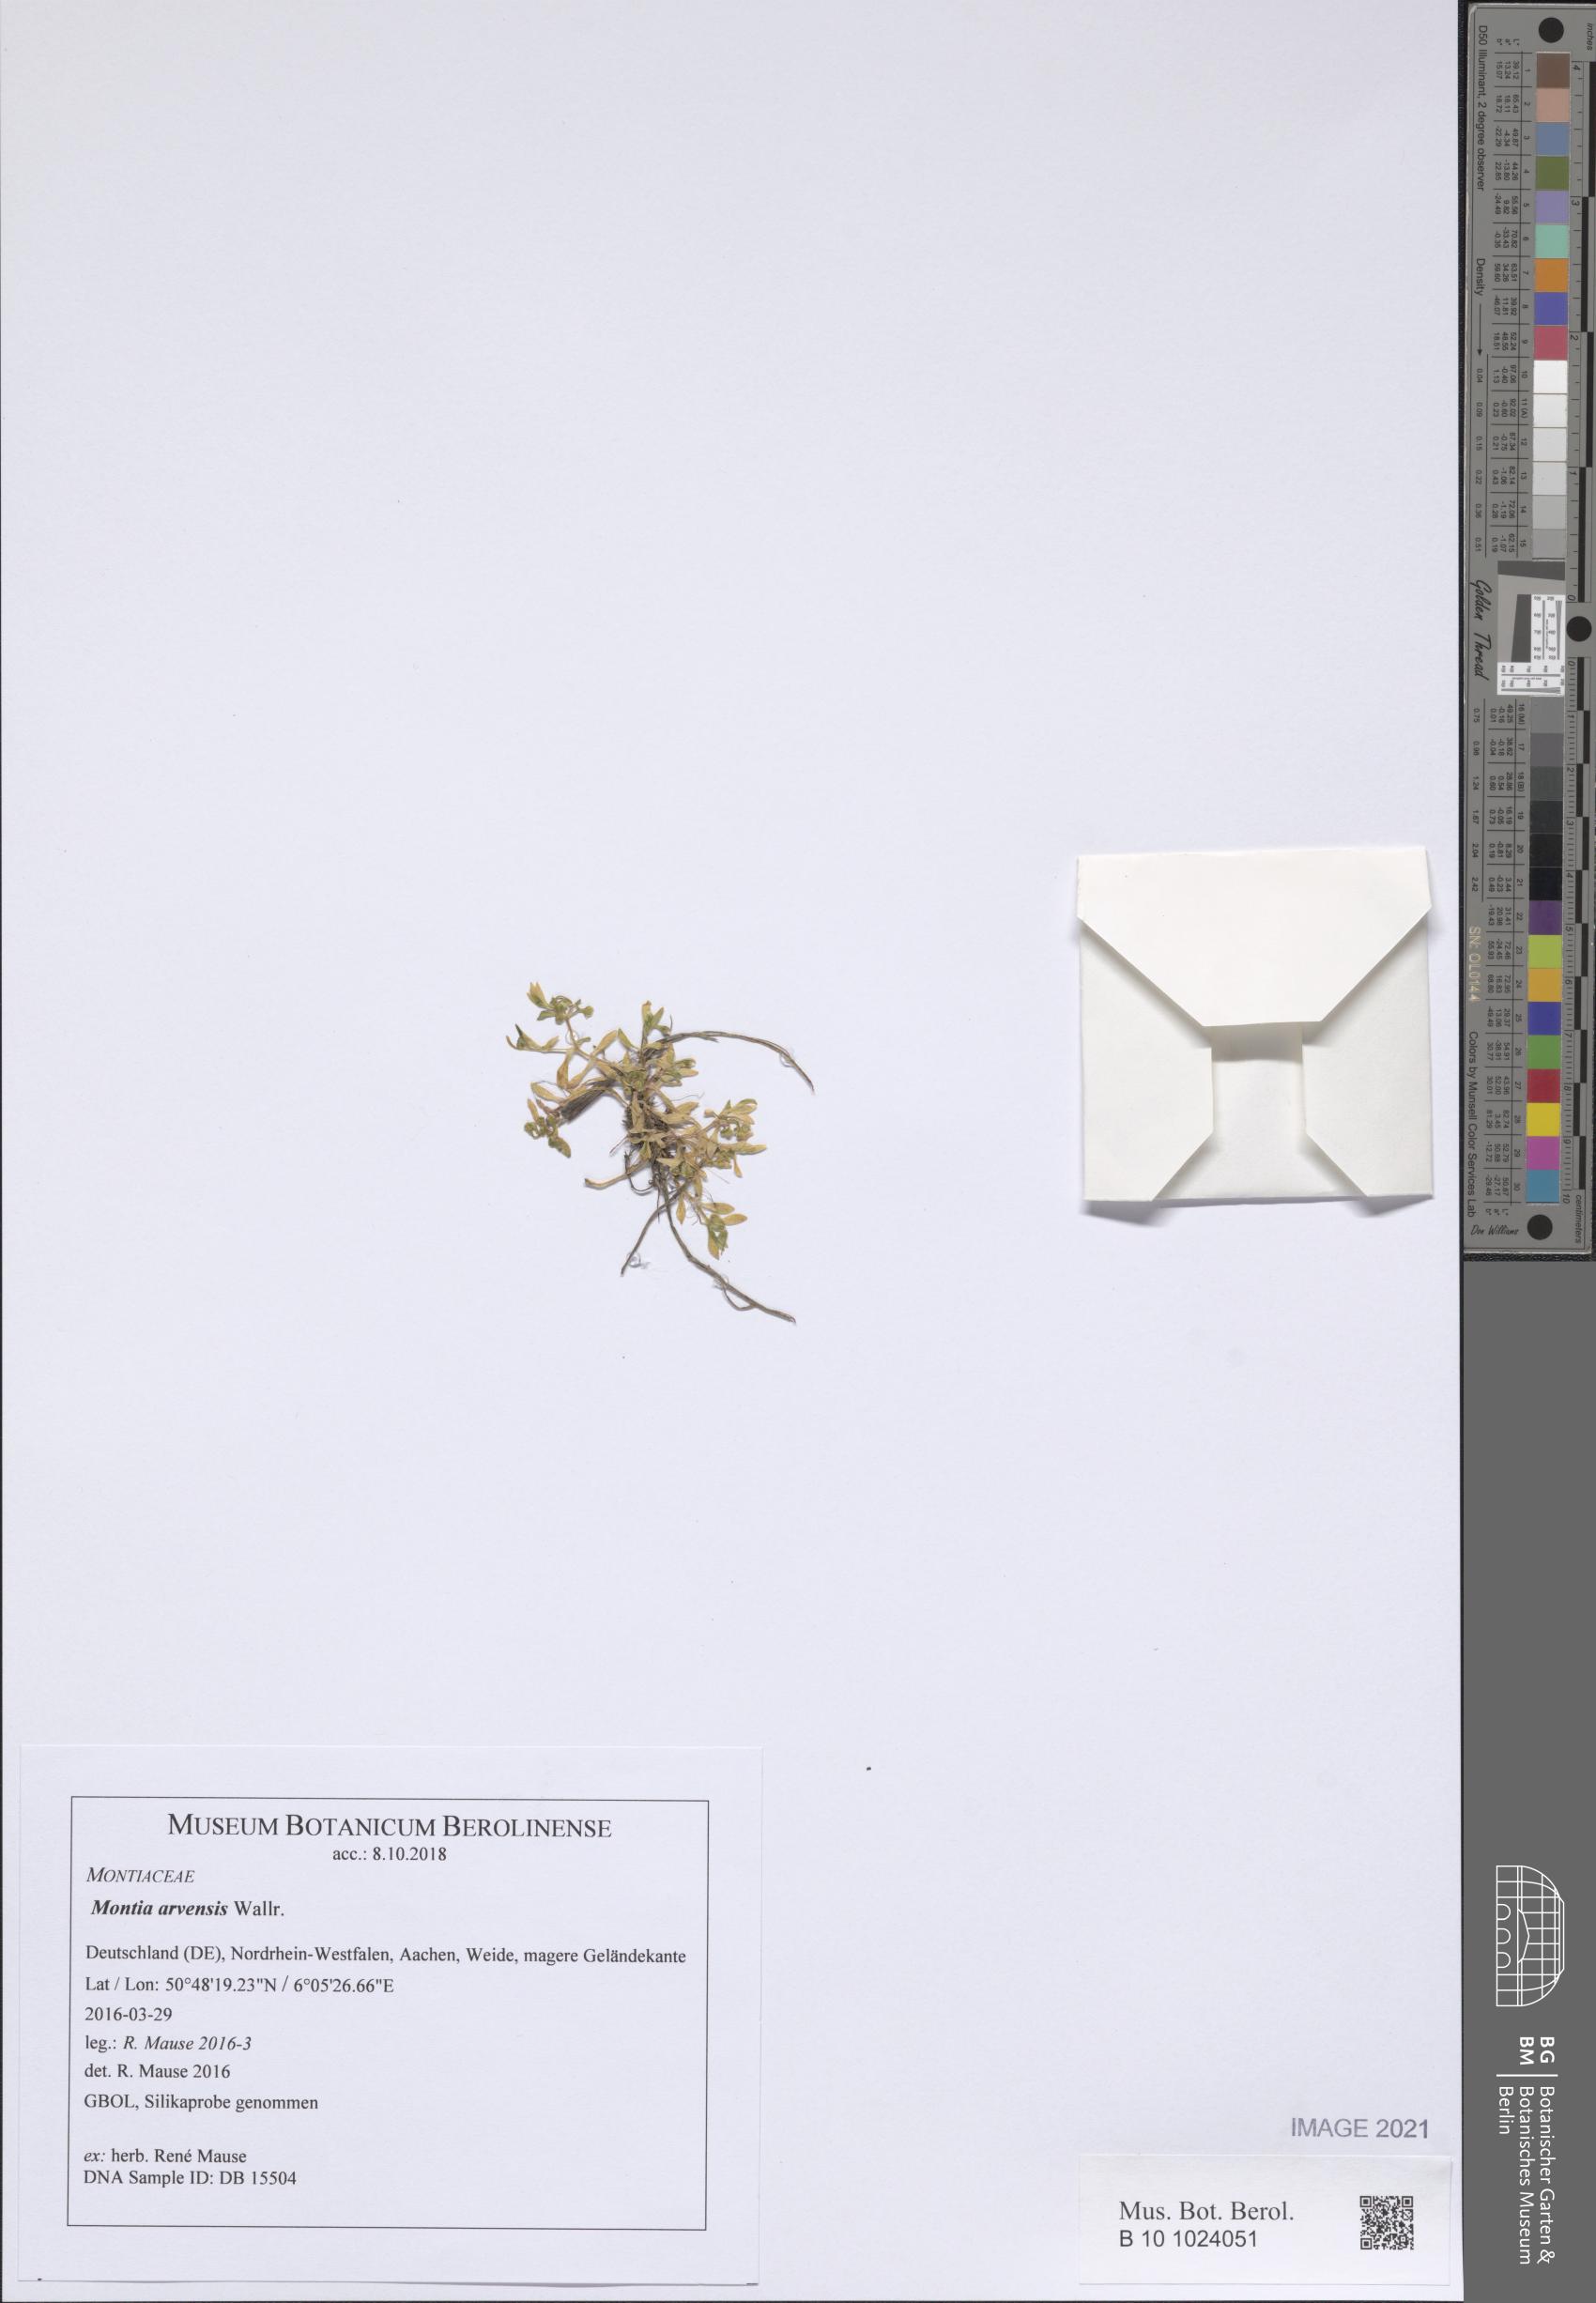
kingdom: Plantae
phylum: Tracheophyta
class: Magnoliopsida
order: Caryophyllales
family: Montiaceae
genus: Montia
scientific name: Montia arvensis
